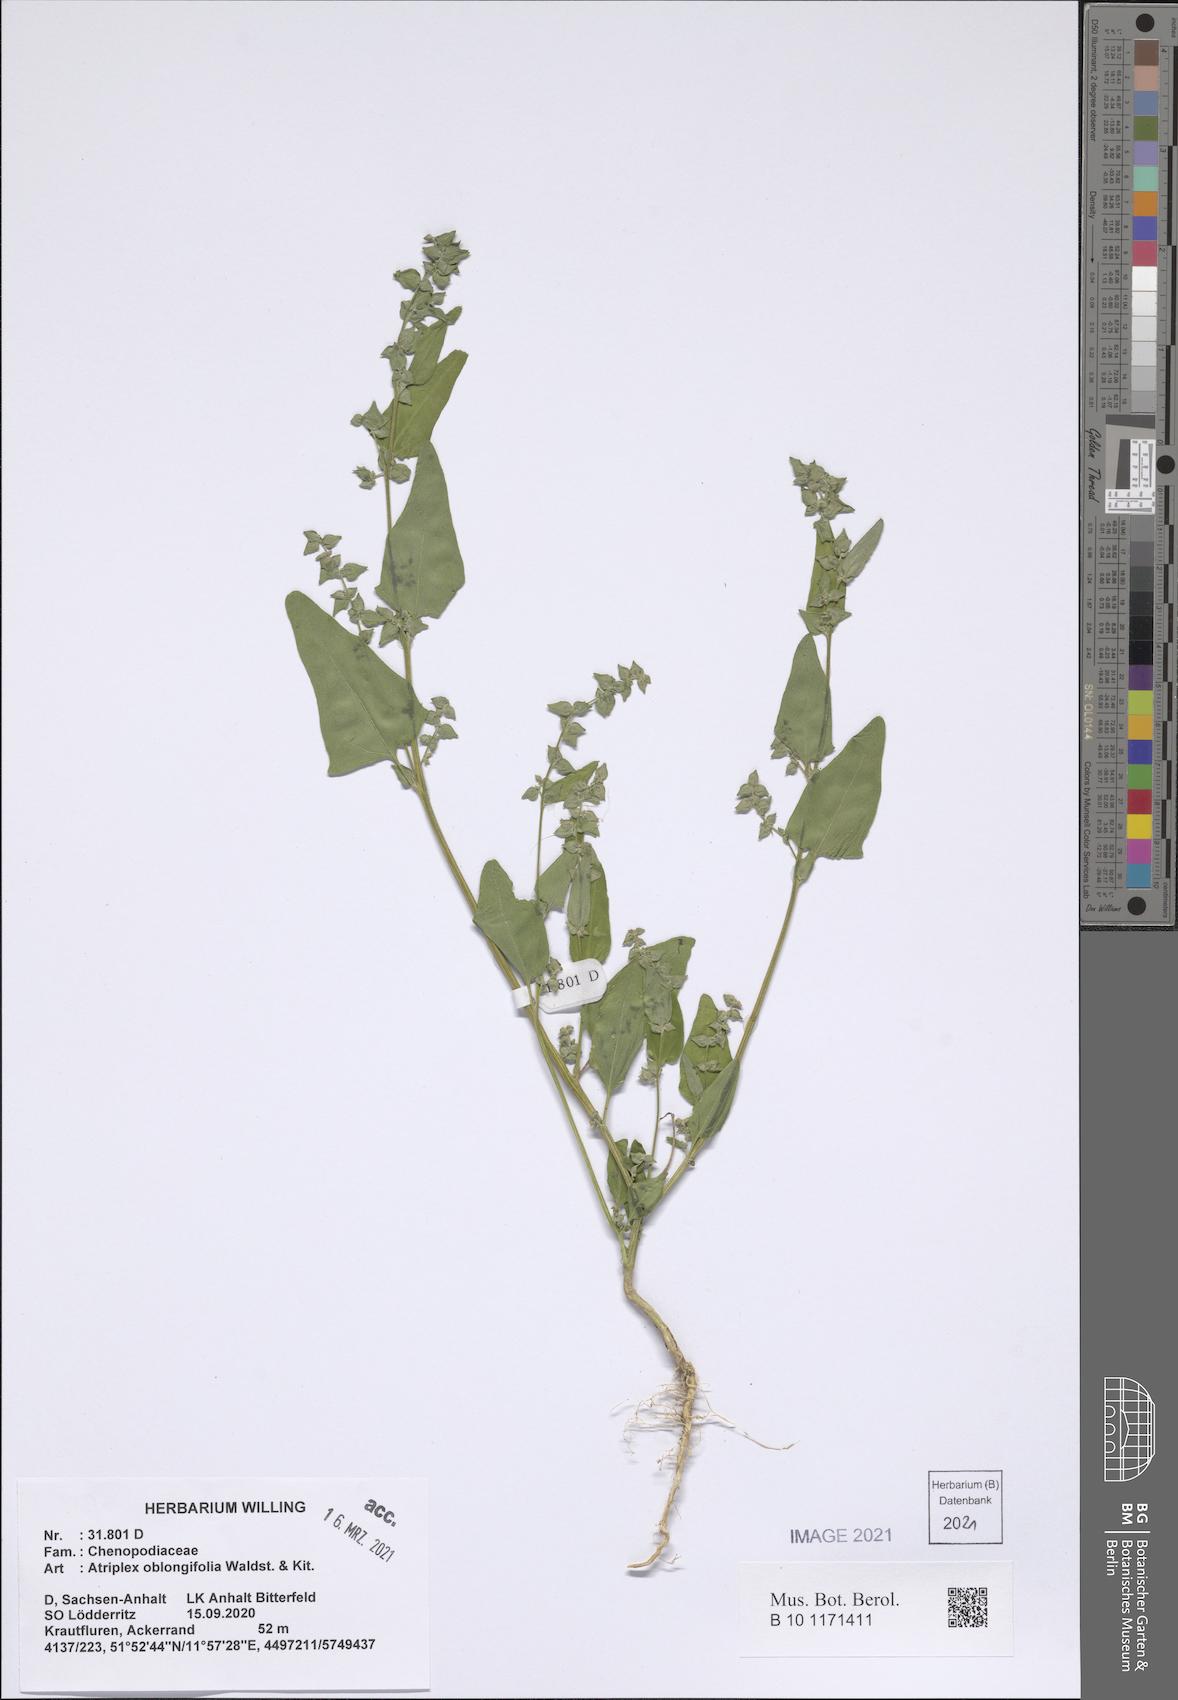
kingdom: Plantae
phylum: Tracheophyta
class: Magnoliopsida
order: Caryophyllales
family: Amaranthaceae
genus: Atriplex
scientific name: Atriplex oblongifolia
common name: Oblongleaf orache
